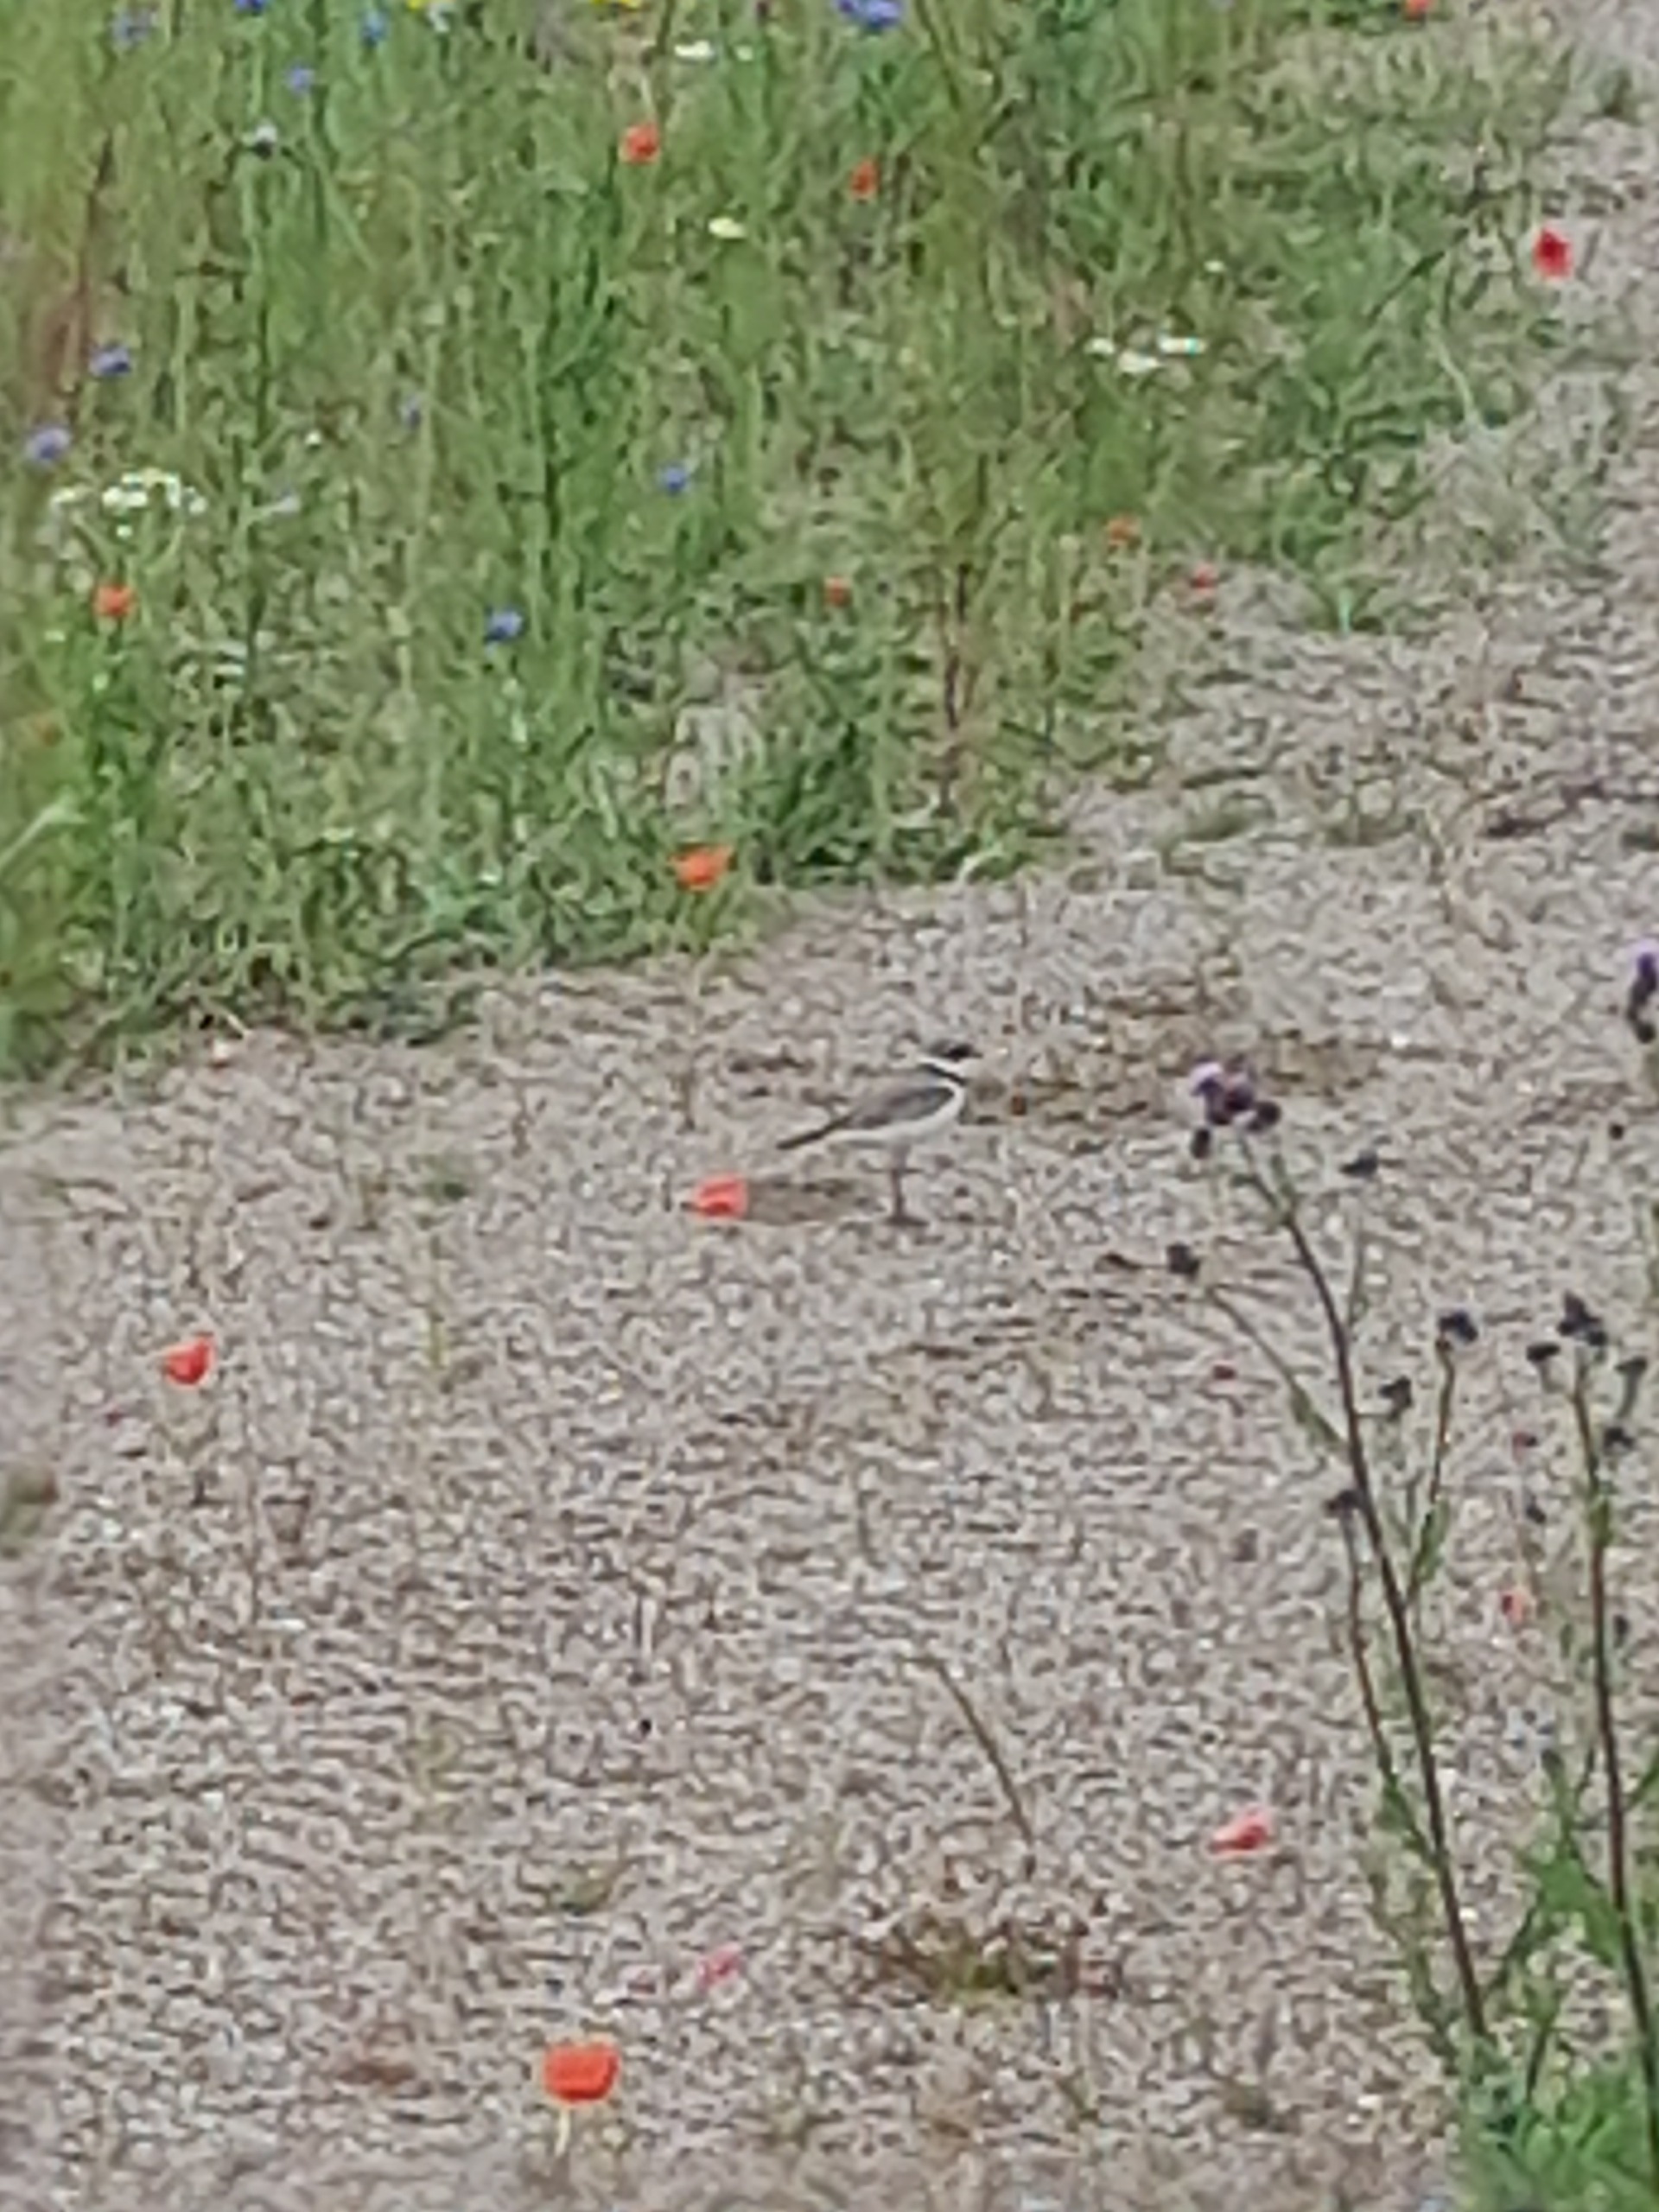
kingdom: Animalia
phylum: Chordata
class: Aves
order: Charadriiformes
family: Charadriidae
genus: Charadrius
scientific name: Charadrius dubius
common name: Lille præstekrave
